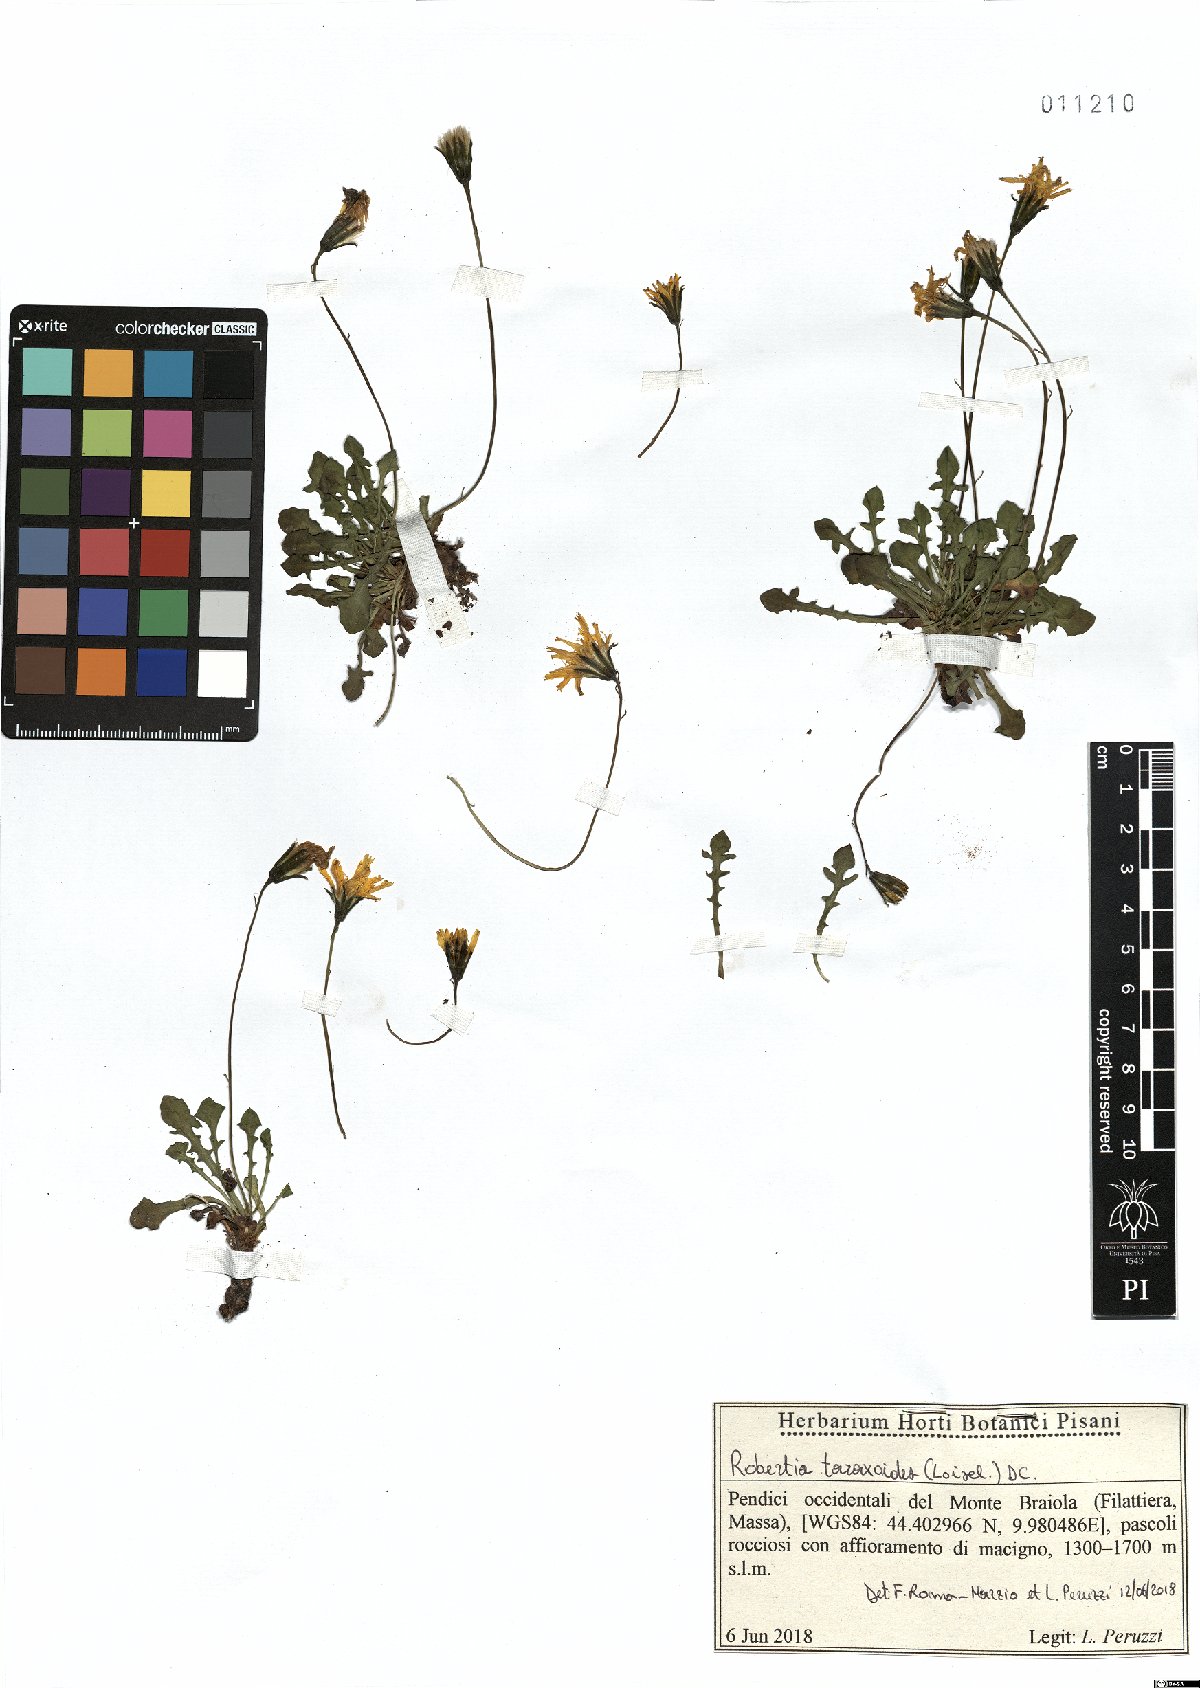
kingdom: Plantae
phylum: Tracheophyta
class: Magnoliopsida
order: Asterales
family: Asteraceae
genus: Hypochaeris
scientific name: Hypochaeris robertia
